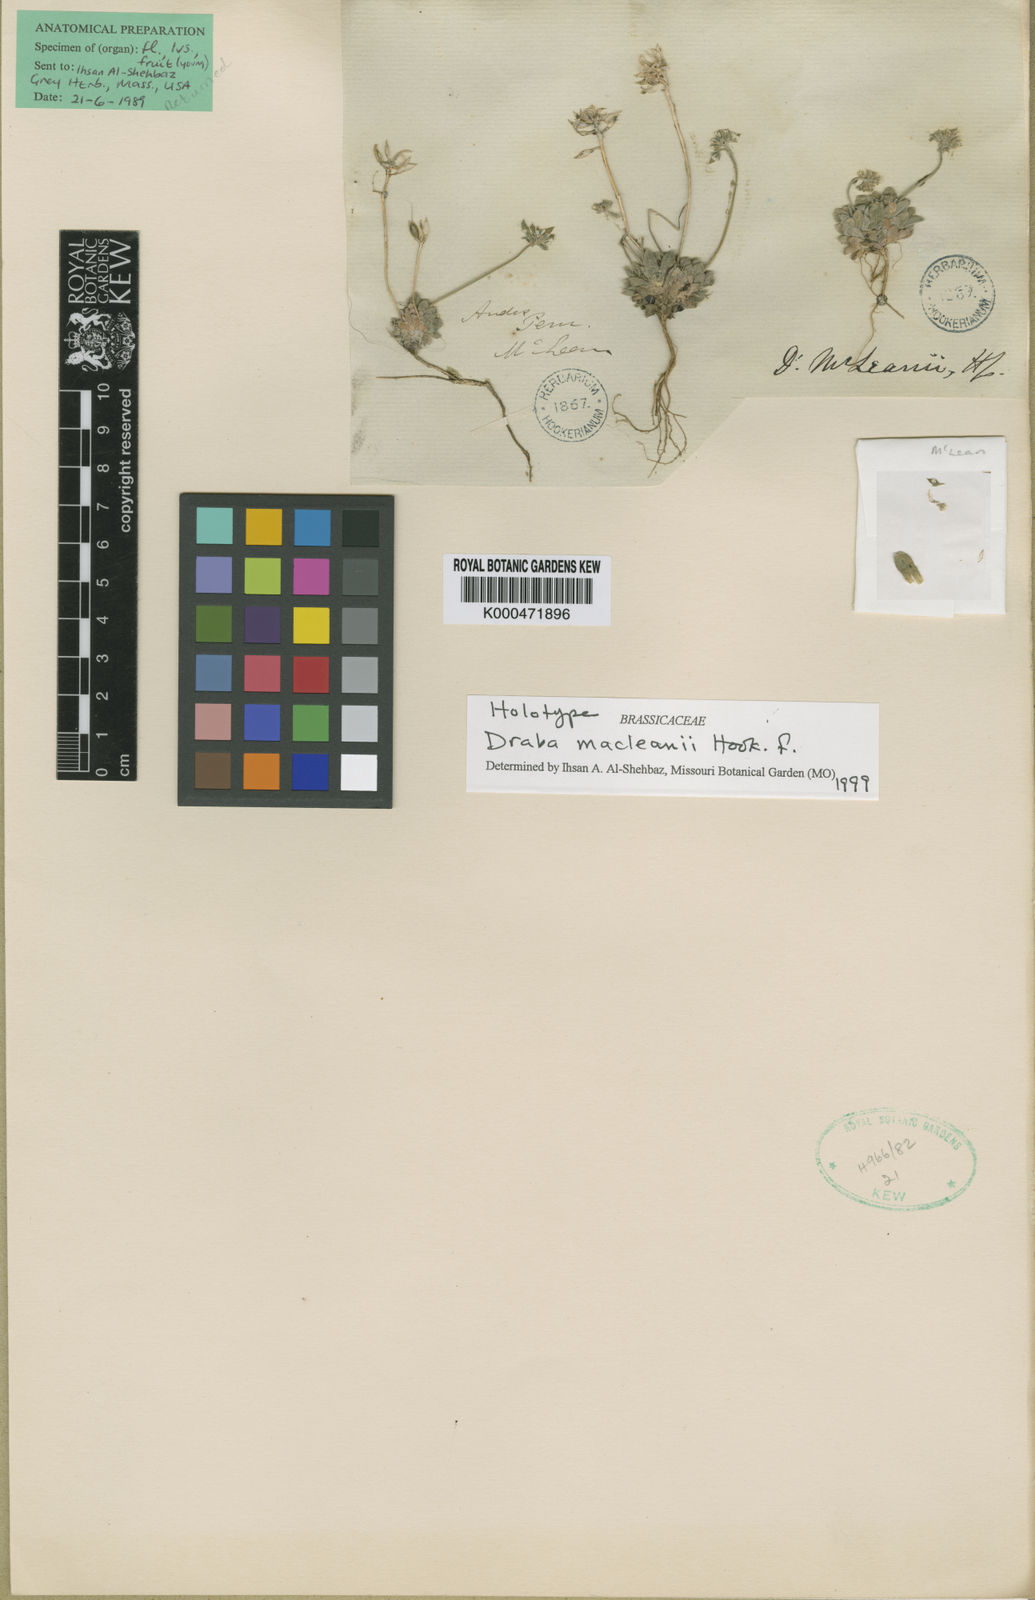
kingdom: Plantae
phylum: Tracheophyta
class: Magnoliopsida
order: Brassicales
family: Brassicaceae
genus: Draba
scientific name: Draba macleanii
